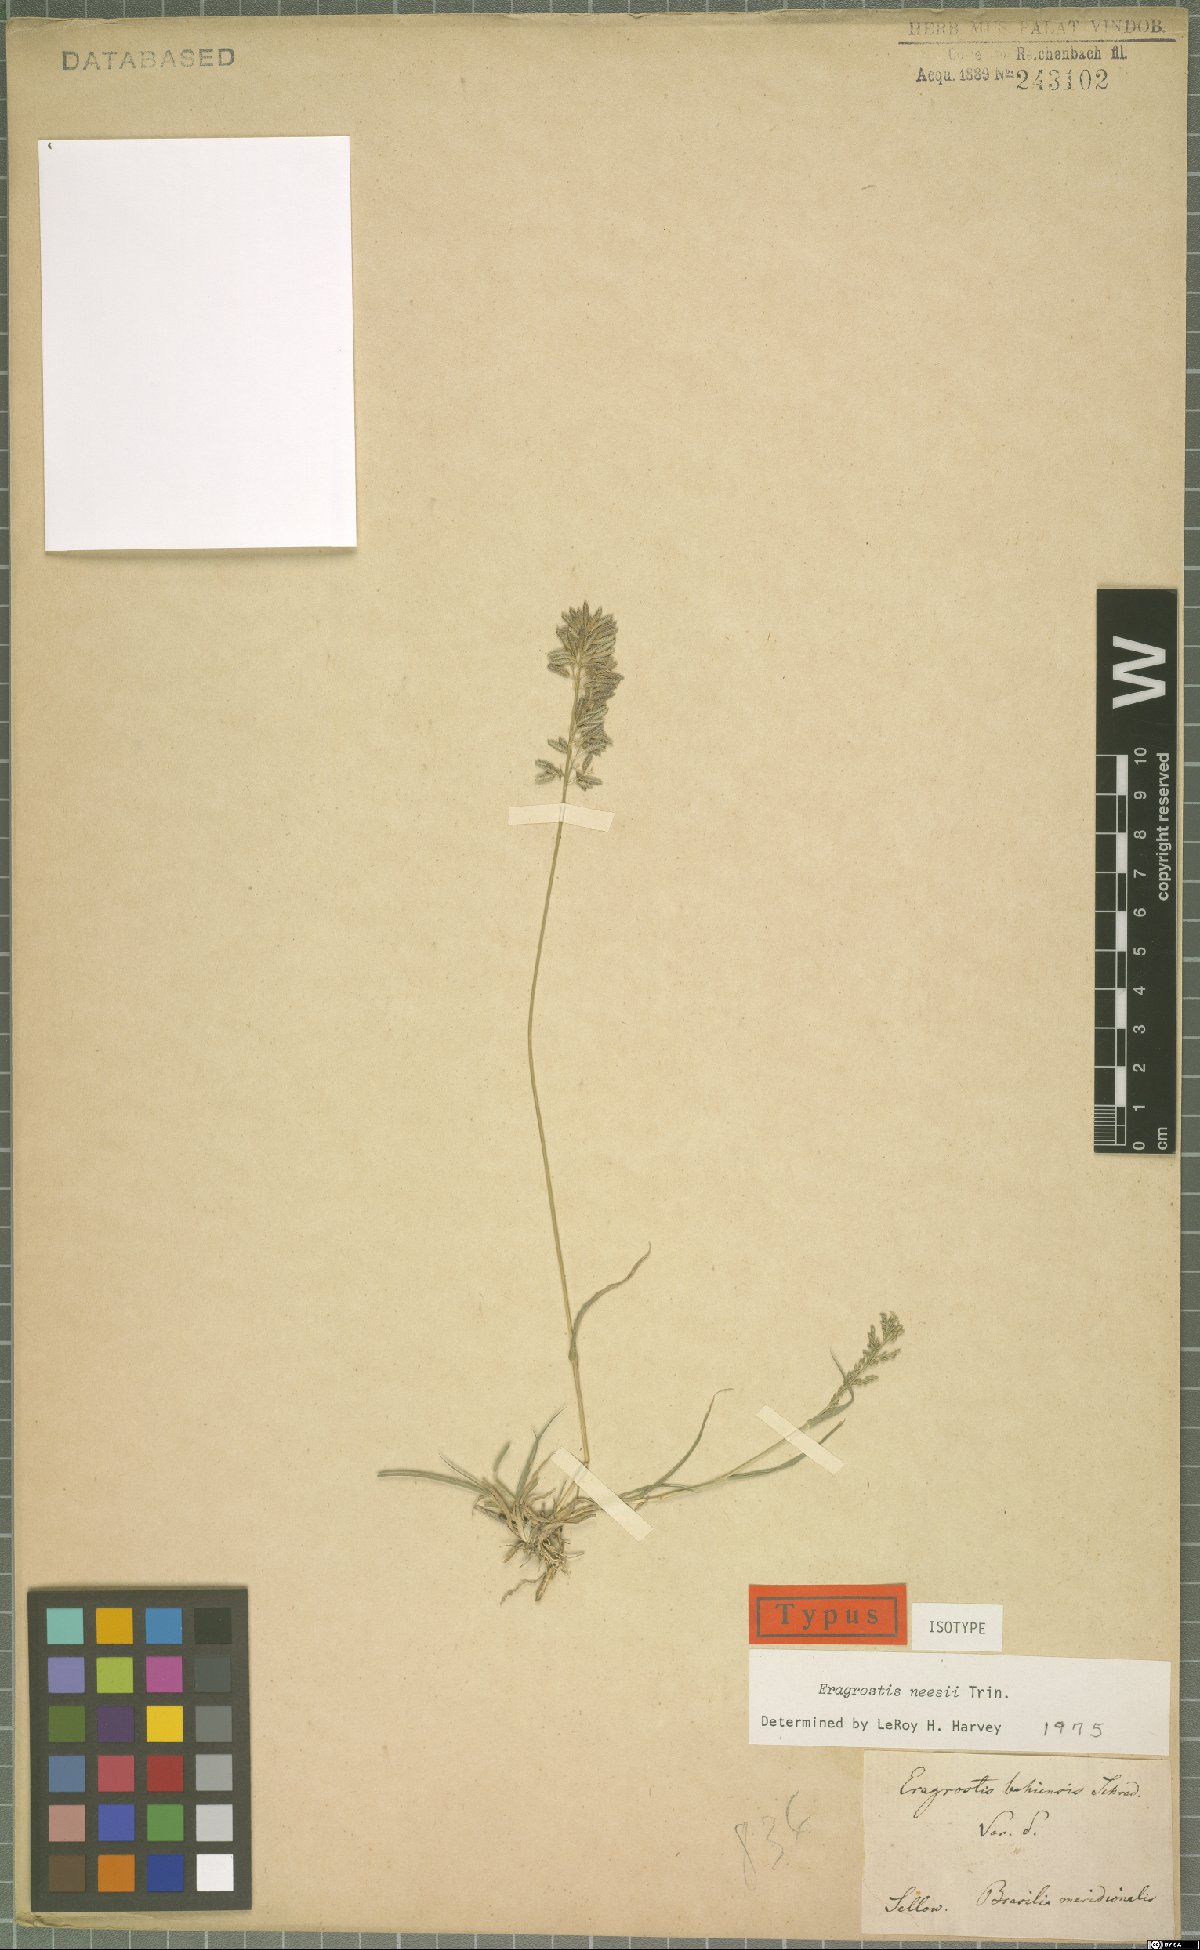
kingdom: Plantae
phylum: Tracheophyta
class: Liliopsida
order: Poales
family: Poaceae
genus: Eragrostis
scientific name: Eragrostis neesii
